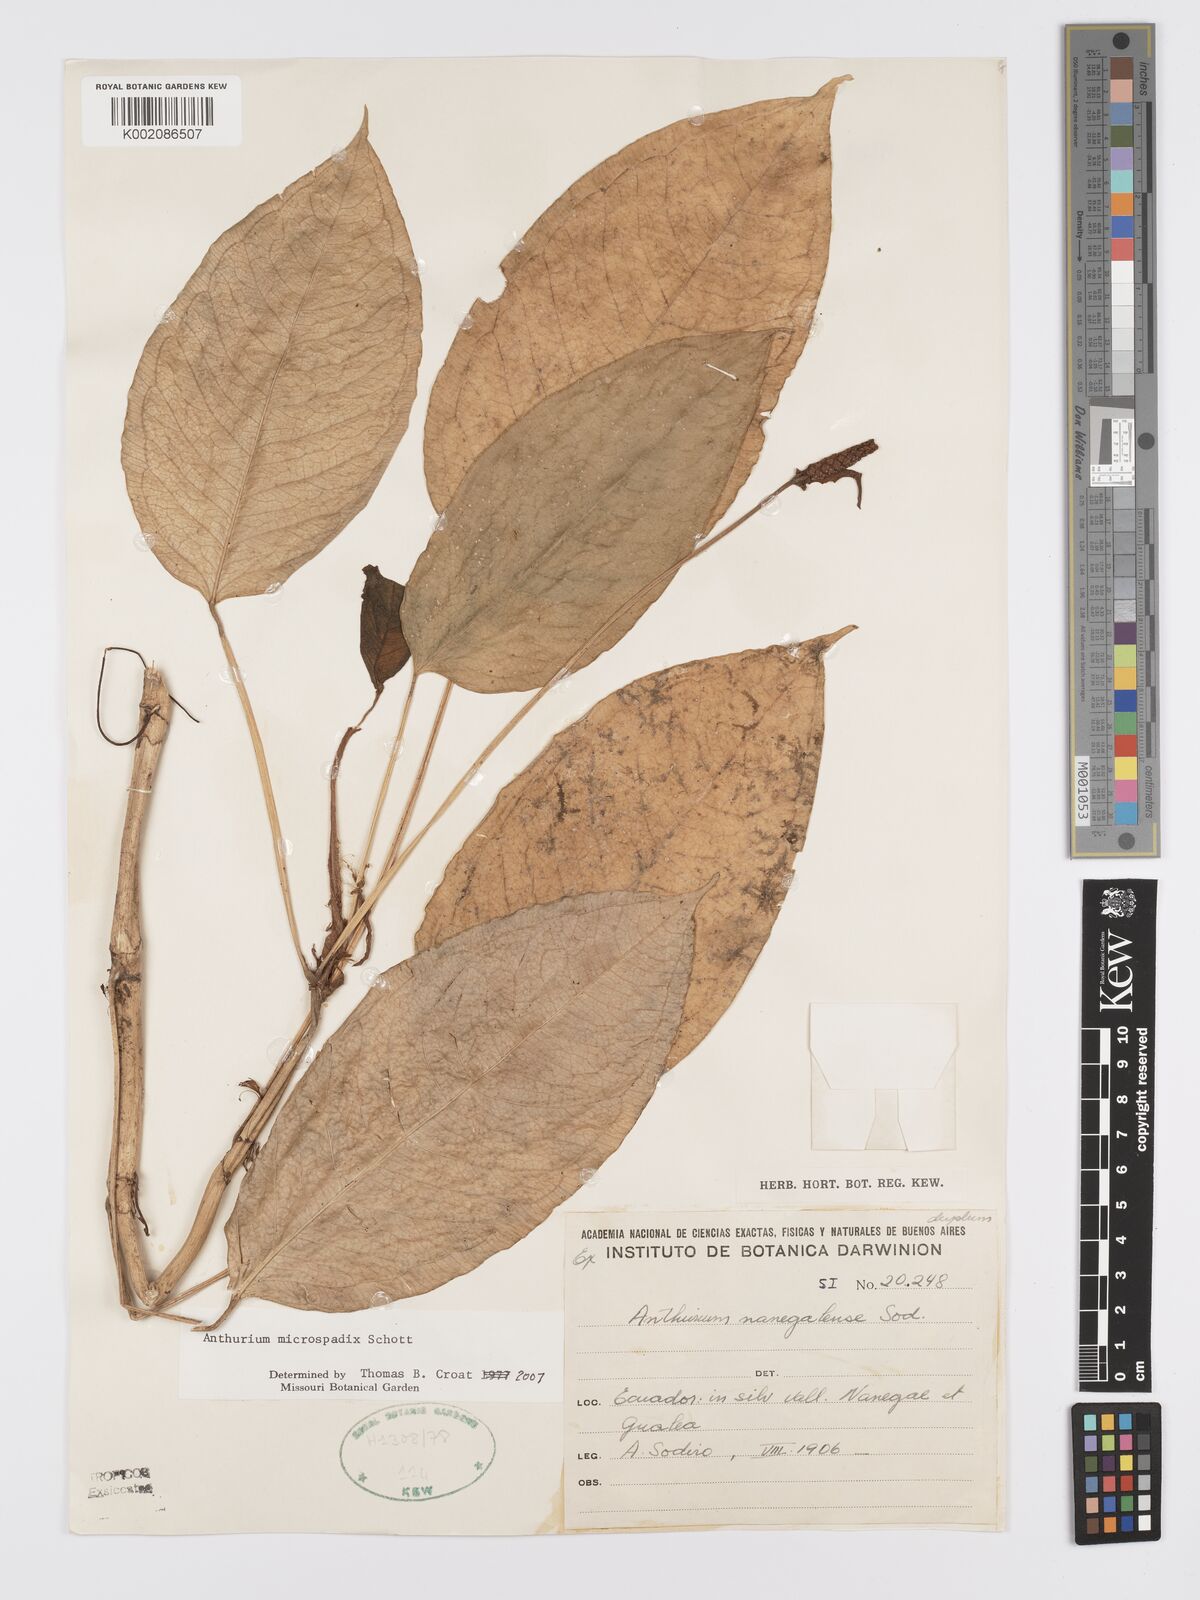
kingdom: Plantae
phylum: Tracheophyta
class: Liliopsida
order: Alismatales
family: Araceae
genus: Anthurium
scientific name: Anthurium microspadix
